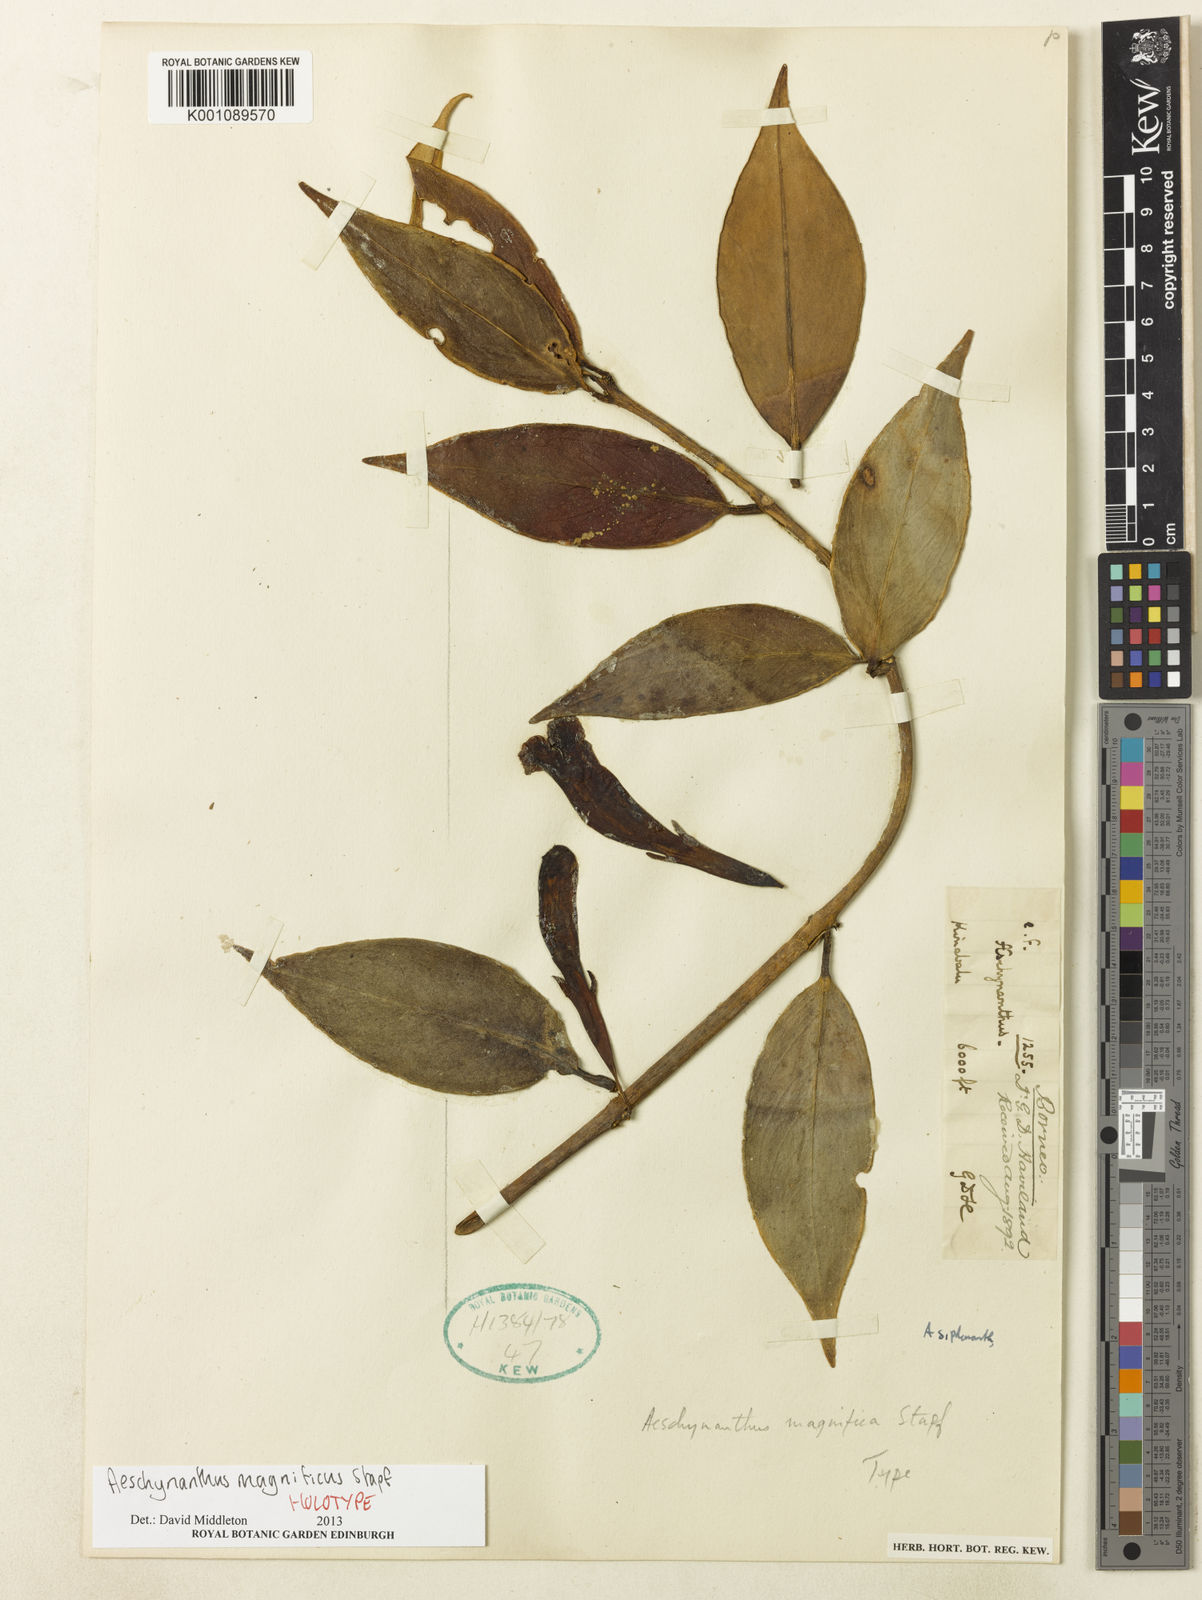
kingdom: Plantae
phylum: Tracheophyta
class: Magnoliopsida
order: Lamiales
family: Gesneriaceae
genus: Aeschynanthus
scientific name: Aeschynanthus magnificus
